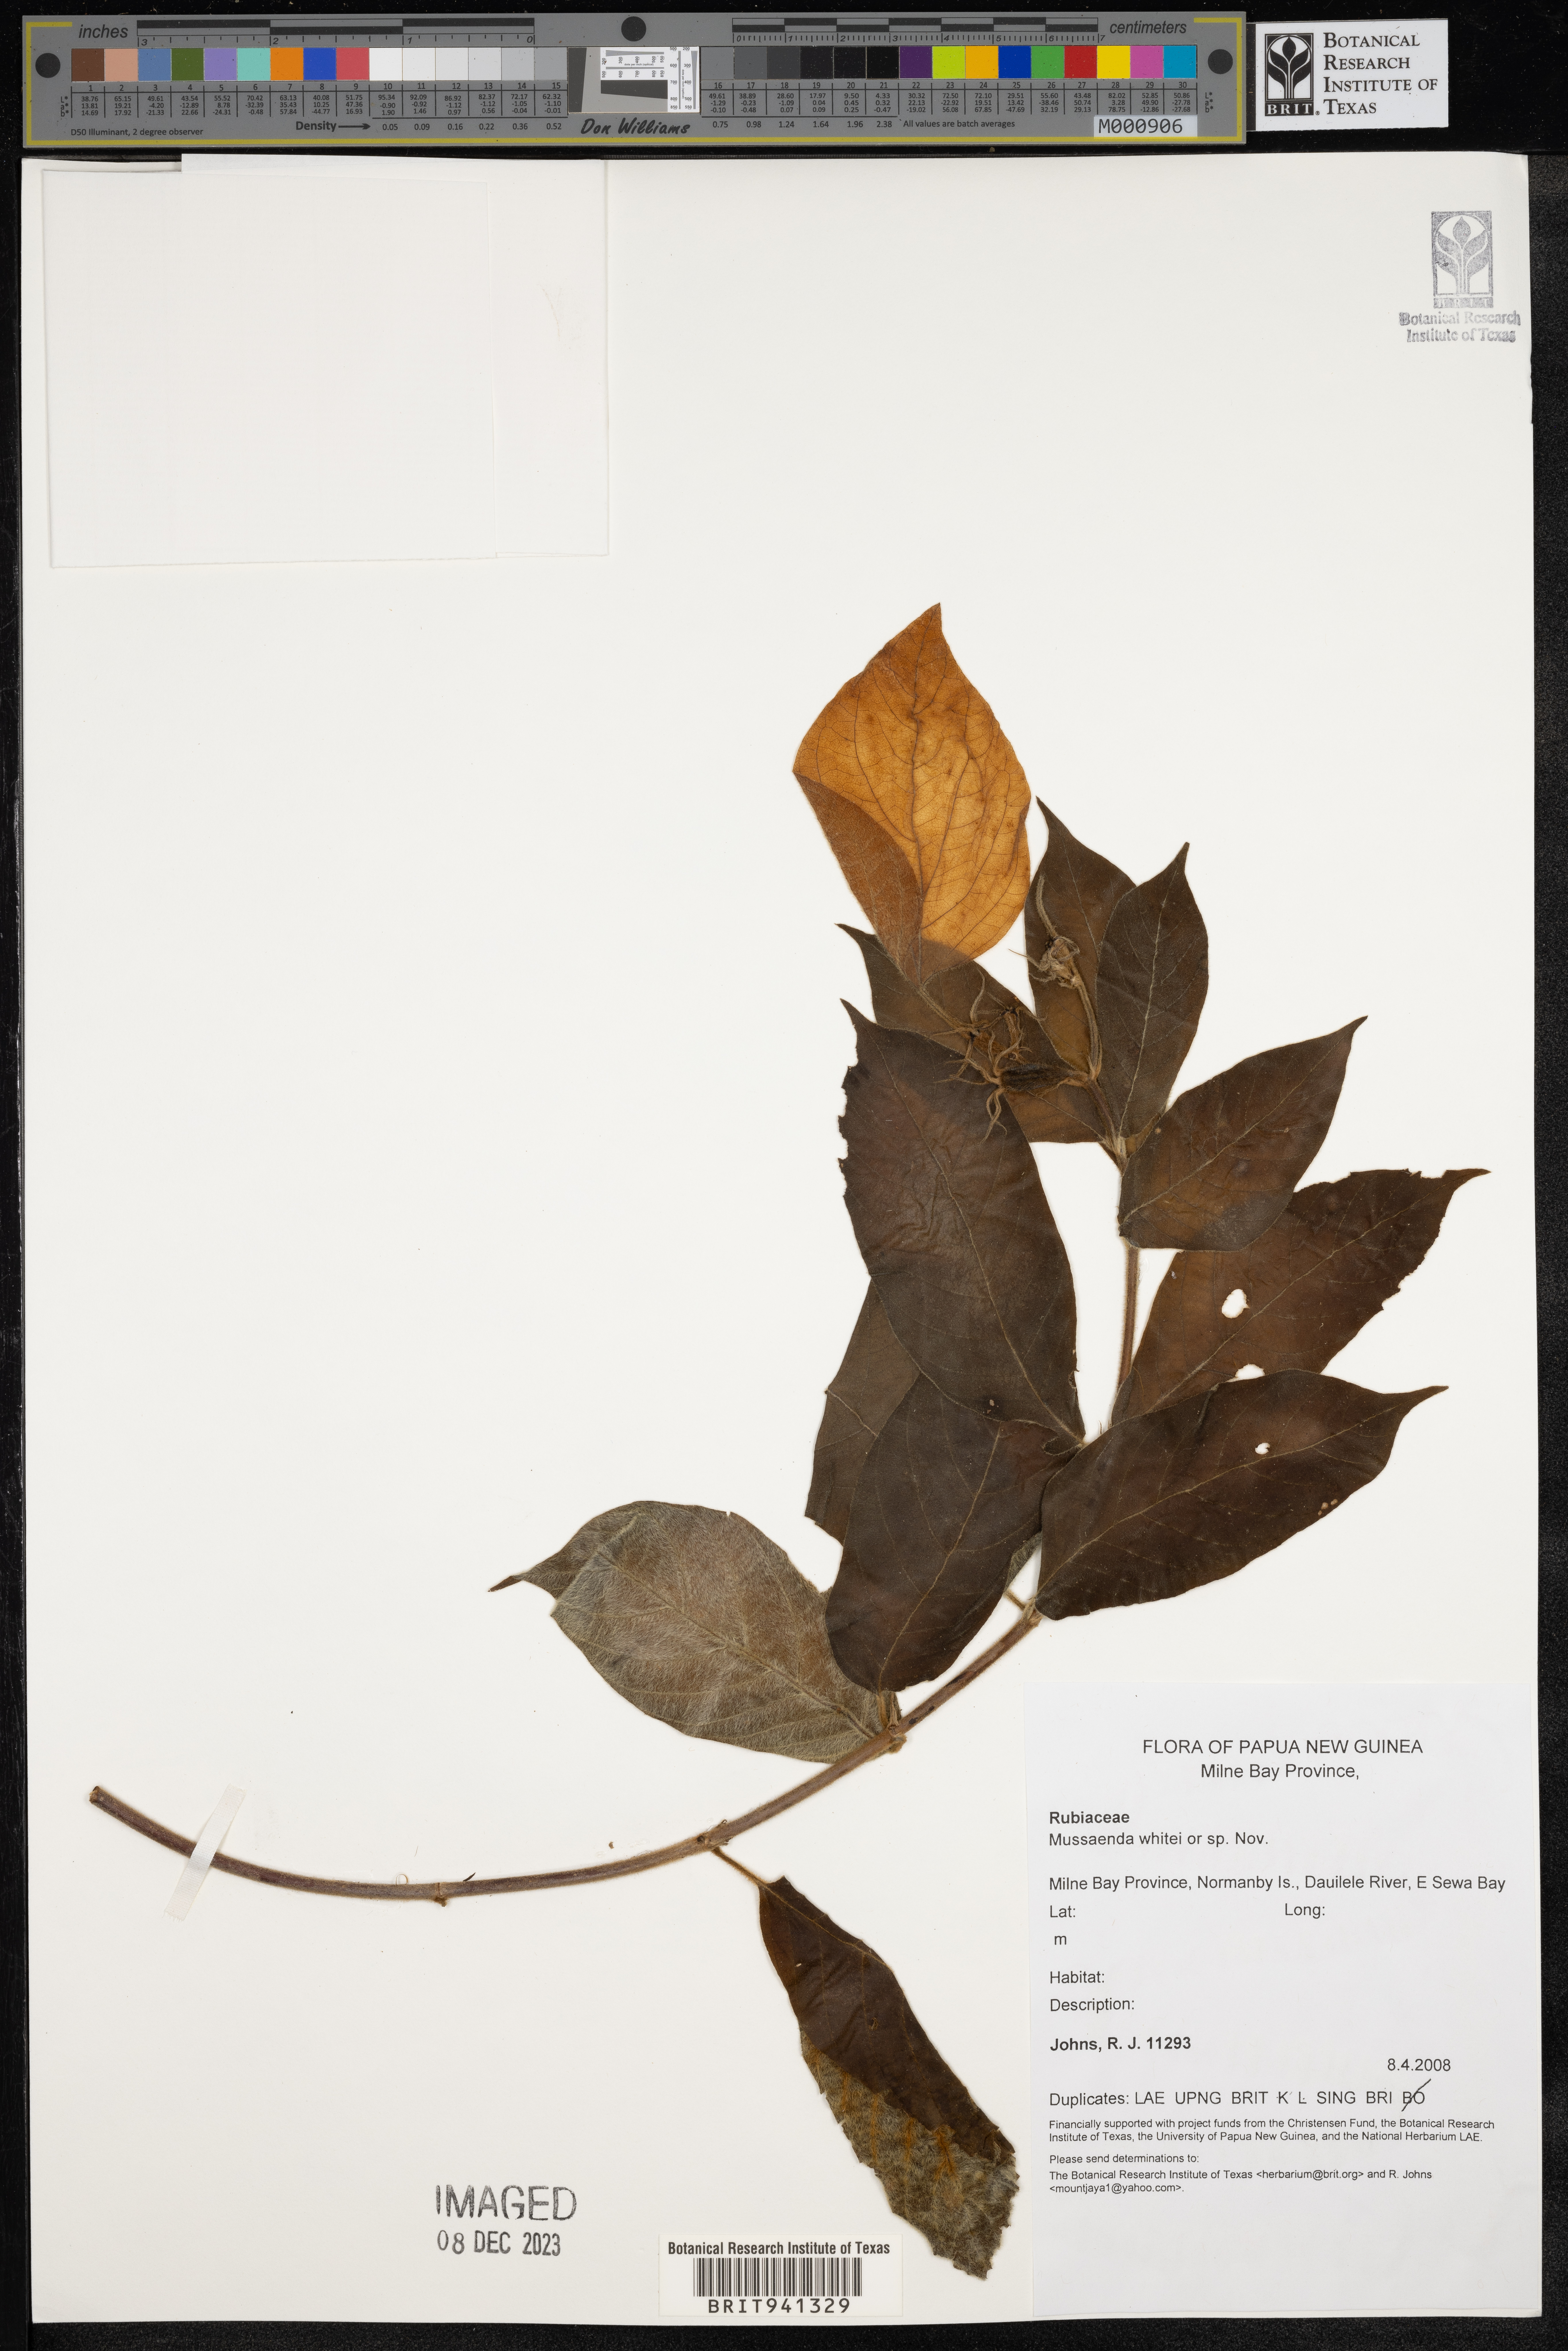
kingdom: Plantae
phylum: Tracheophyta
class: Magnoliopsida
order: Gentianales
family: Rubiaceae
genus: Mussaenda
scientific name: Mussaenda
